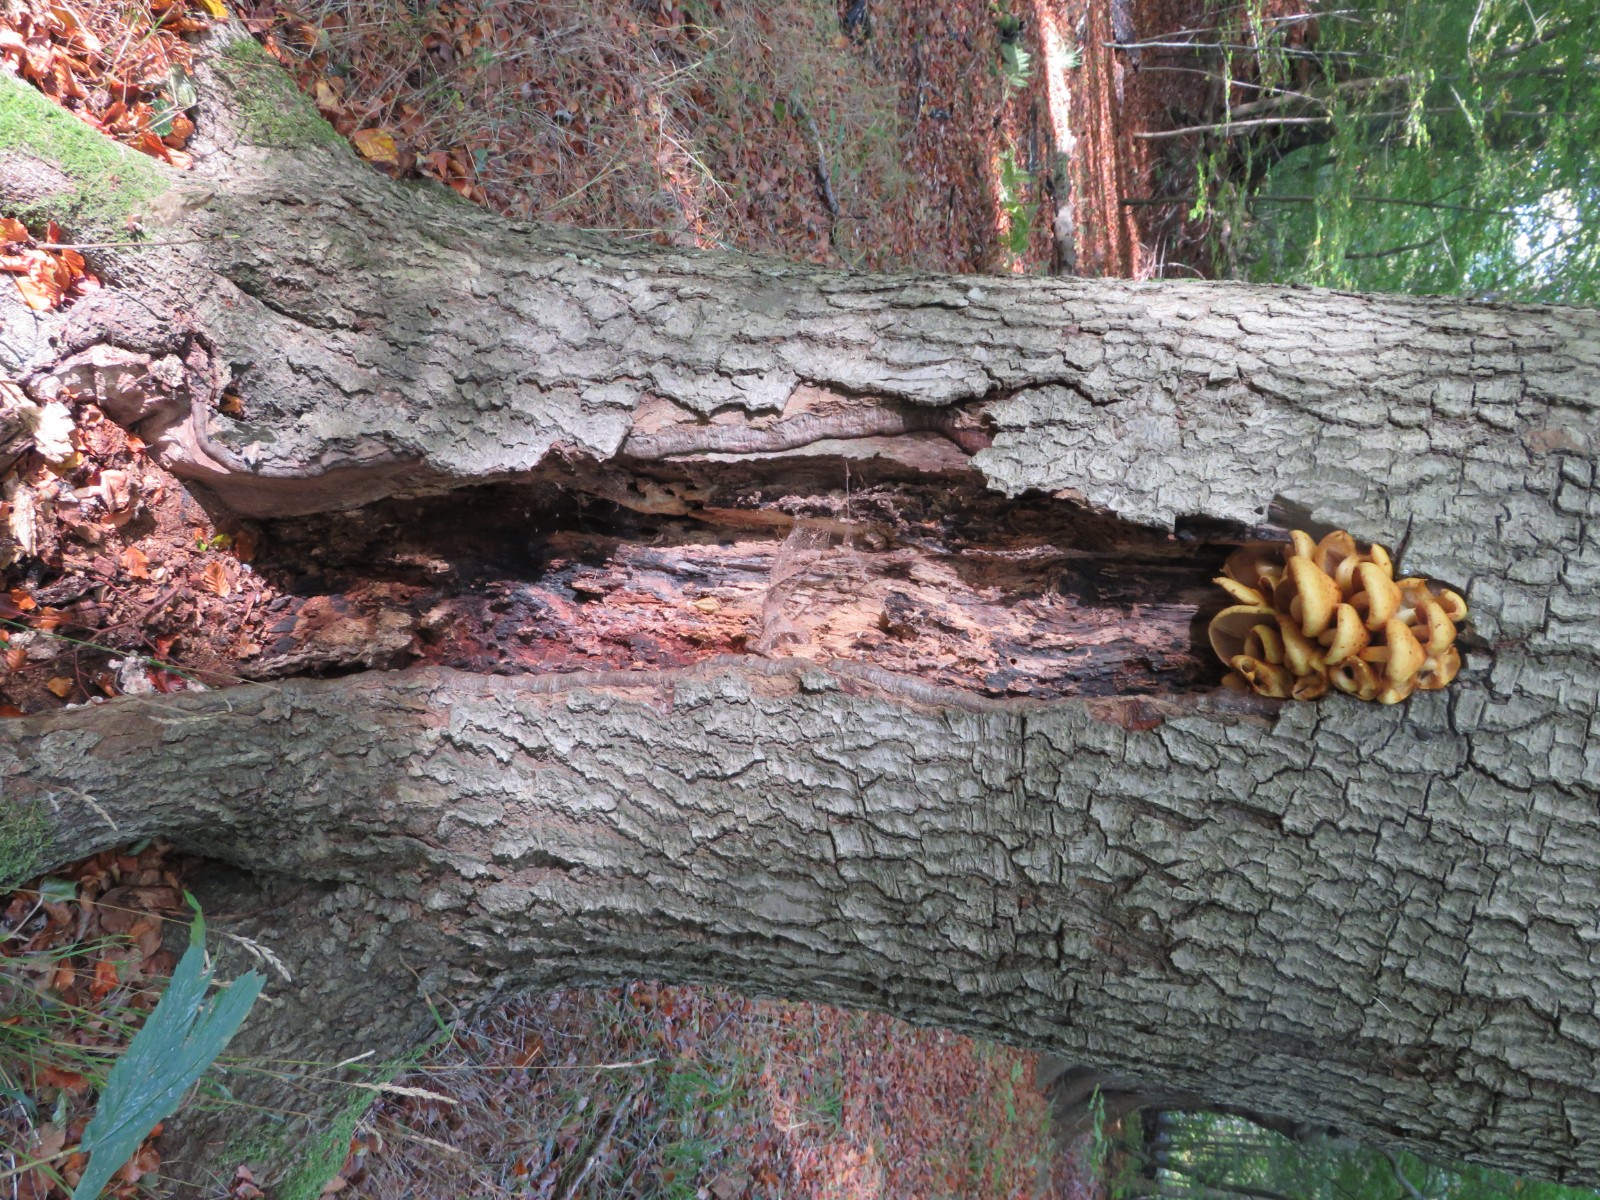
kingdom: Fungi
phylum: Basidiomycota
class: Agaricomycetes
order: Agaricales
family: Strophariaceae
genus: Pholiota
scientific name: Pholiota adiposa
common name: højtsiddende skælhat
